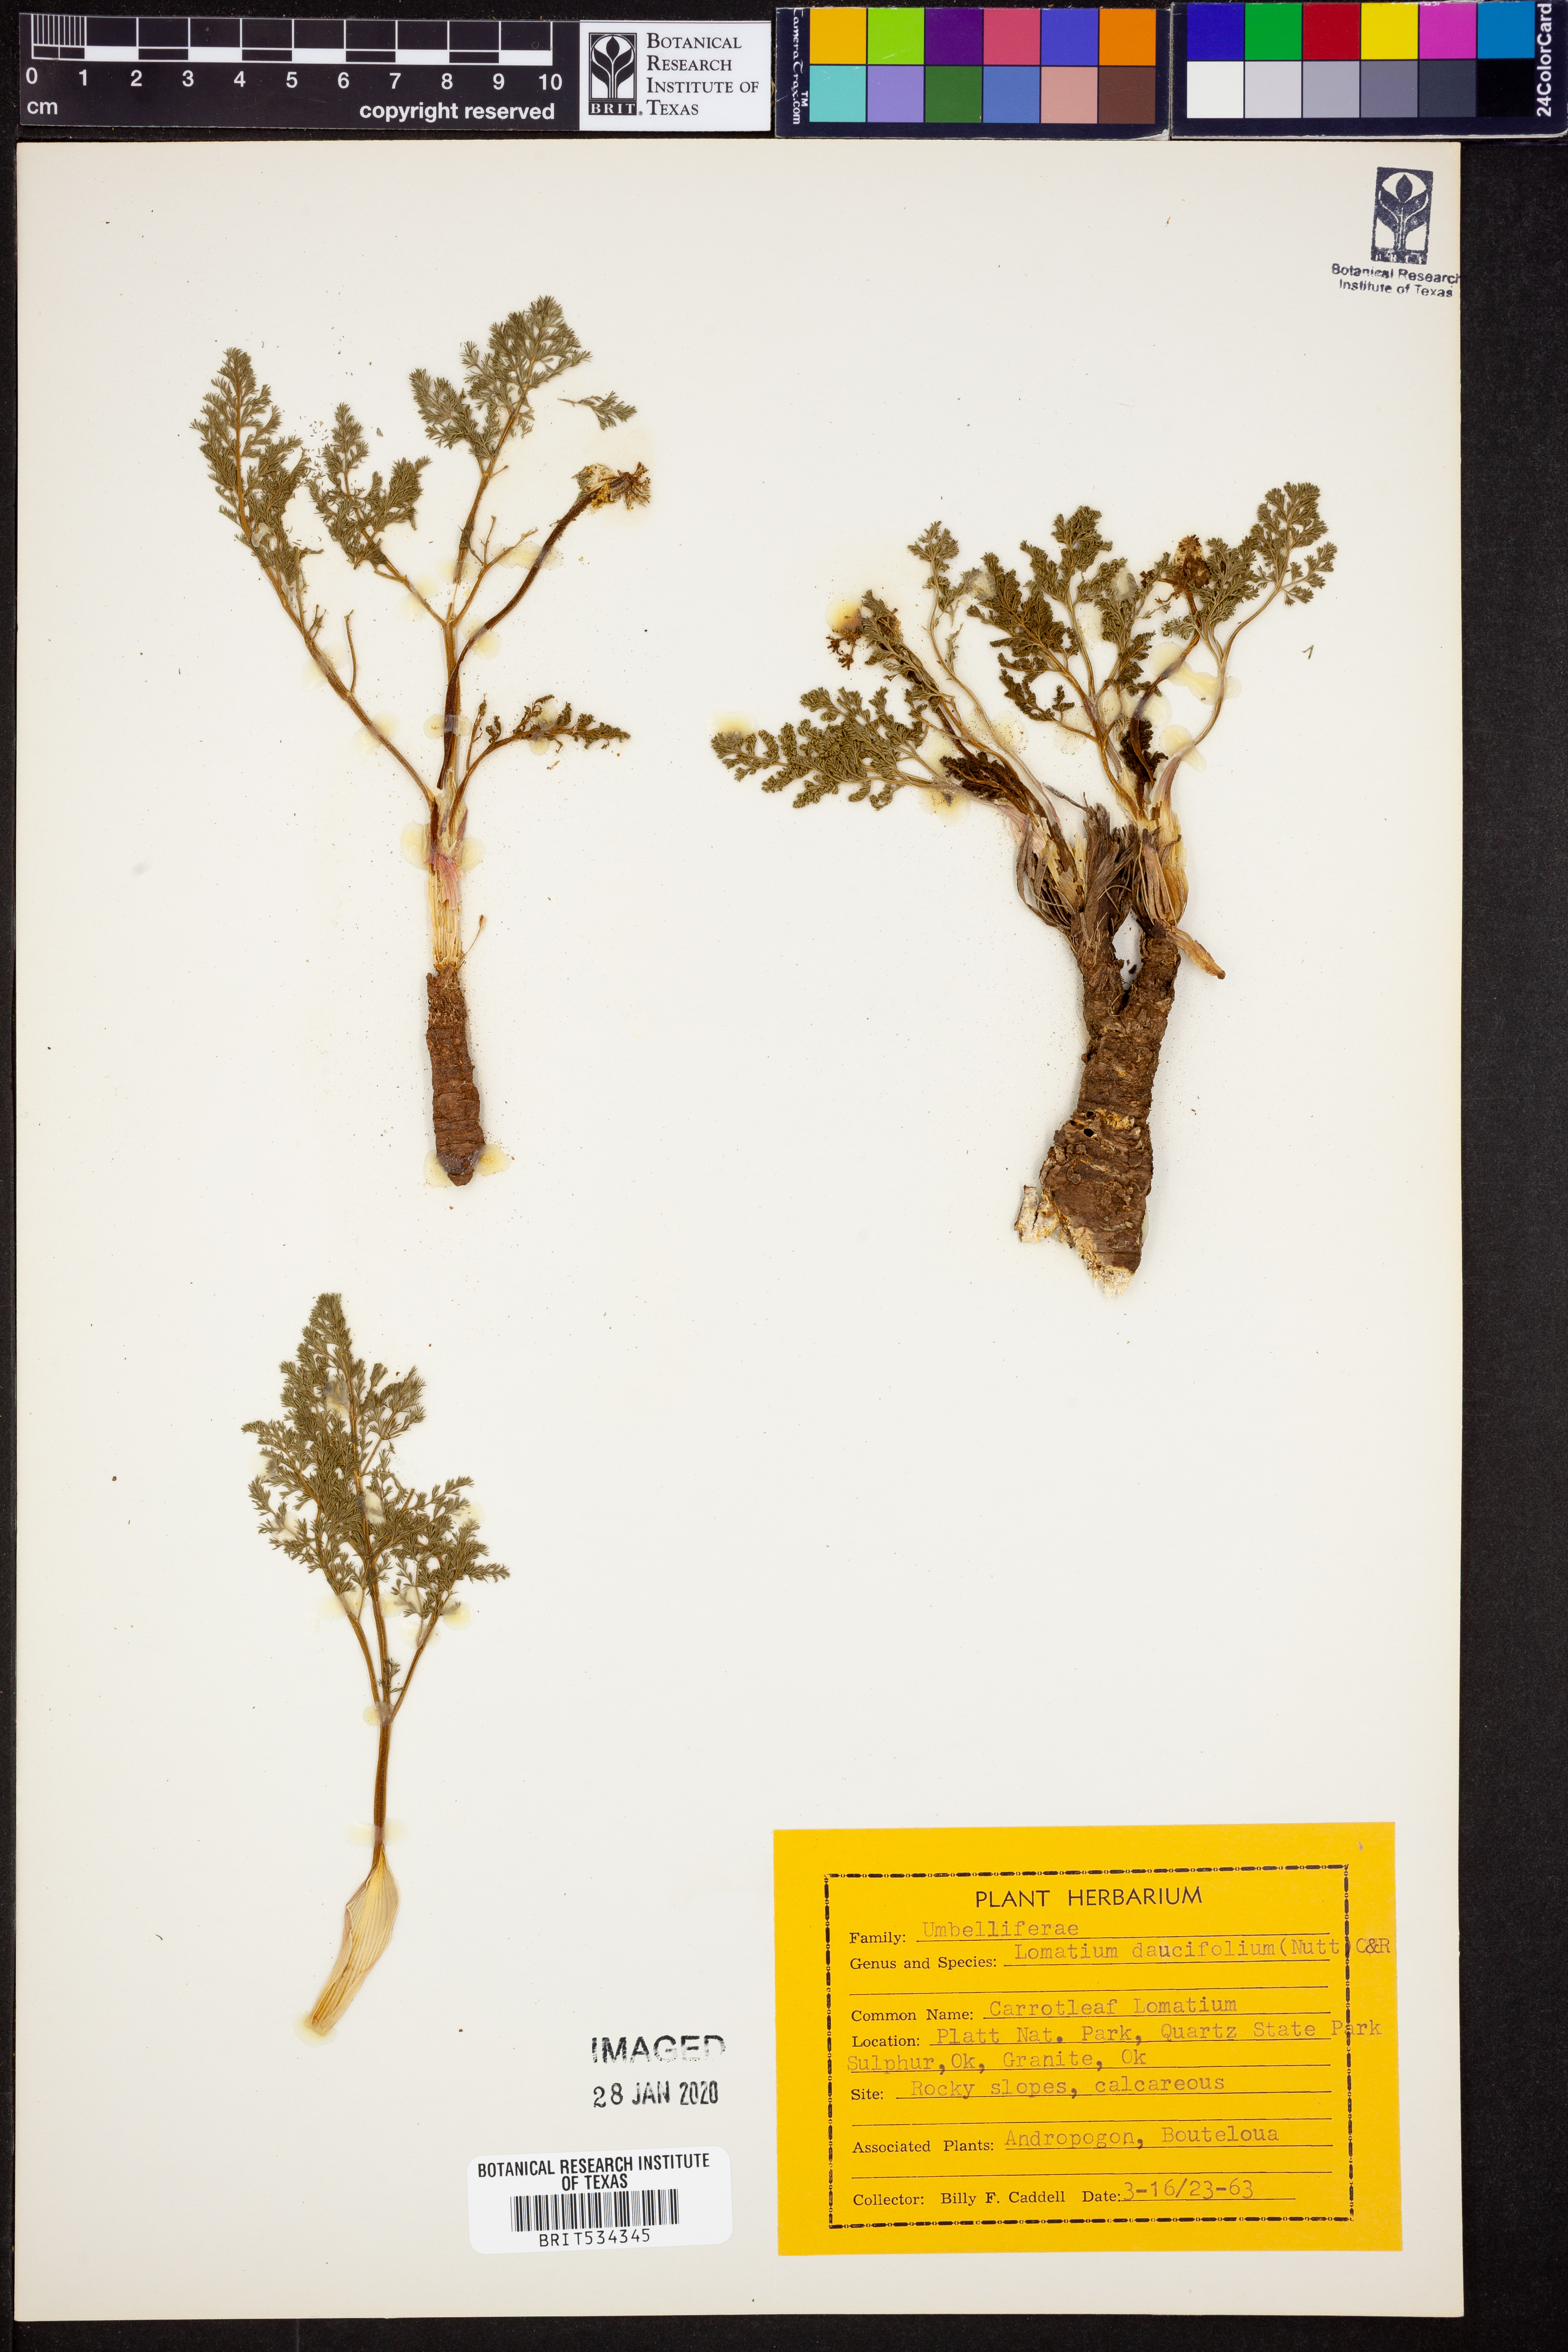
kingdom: Plantae
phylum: Tracheophyta
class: Magnoliopsida
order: Apiales
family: Apiaceae
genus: Lomatium
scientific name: Lomatium foeniculaceum
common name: Desert-parsley
